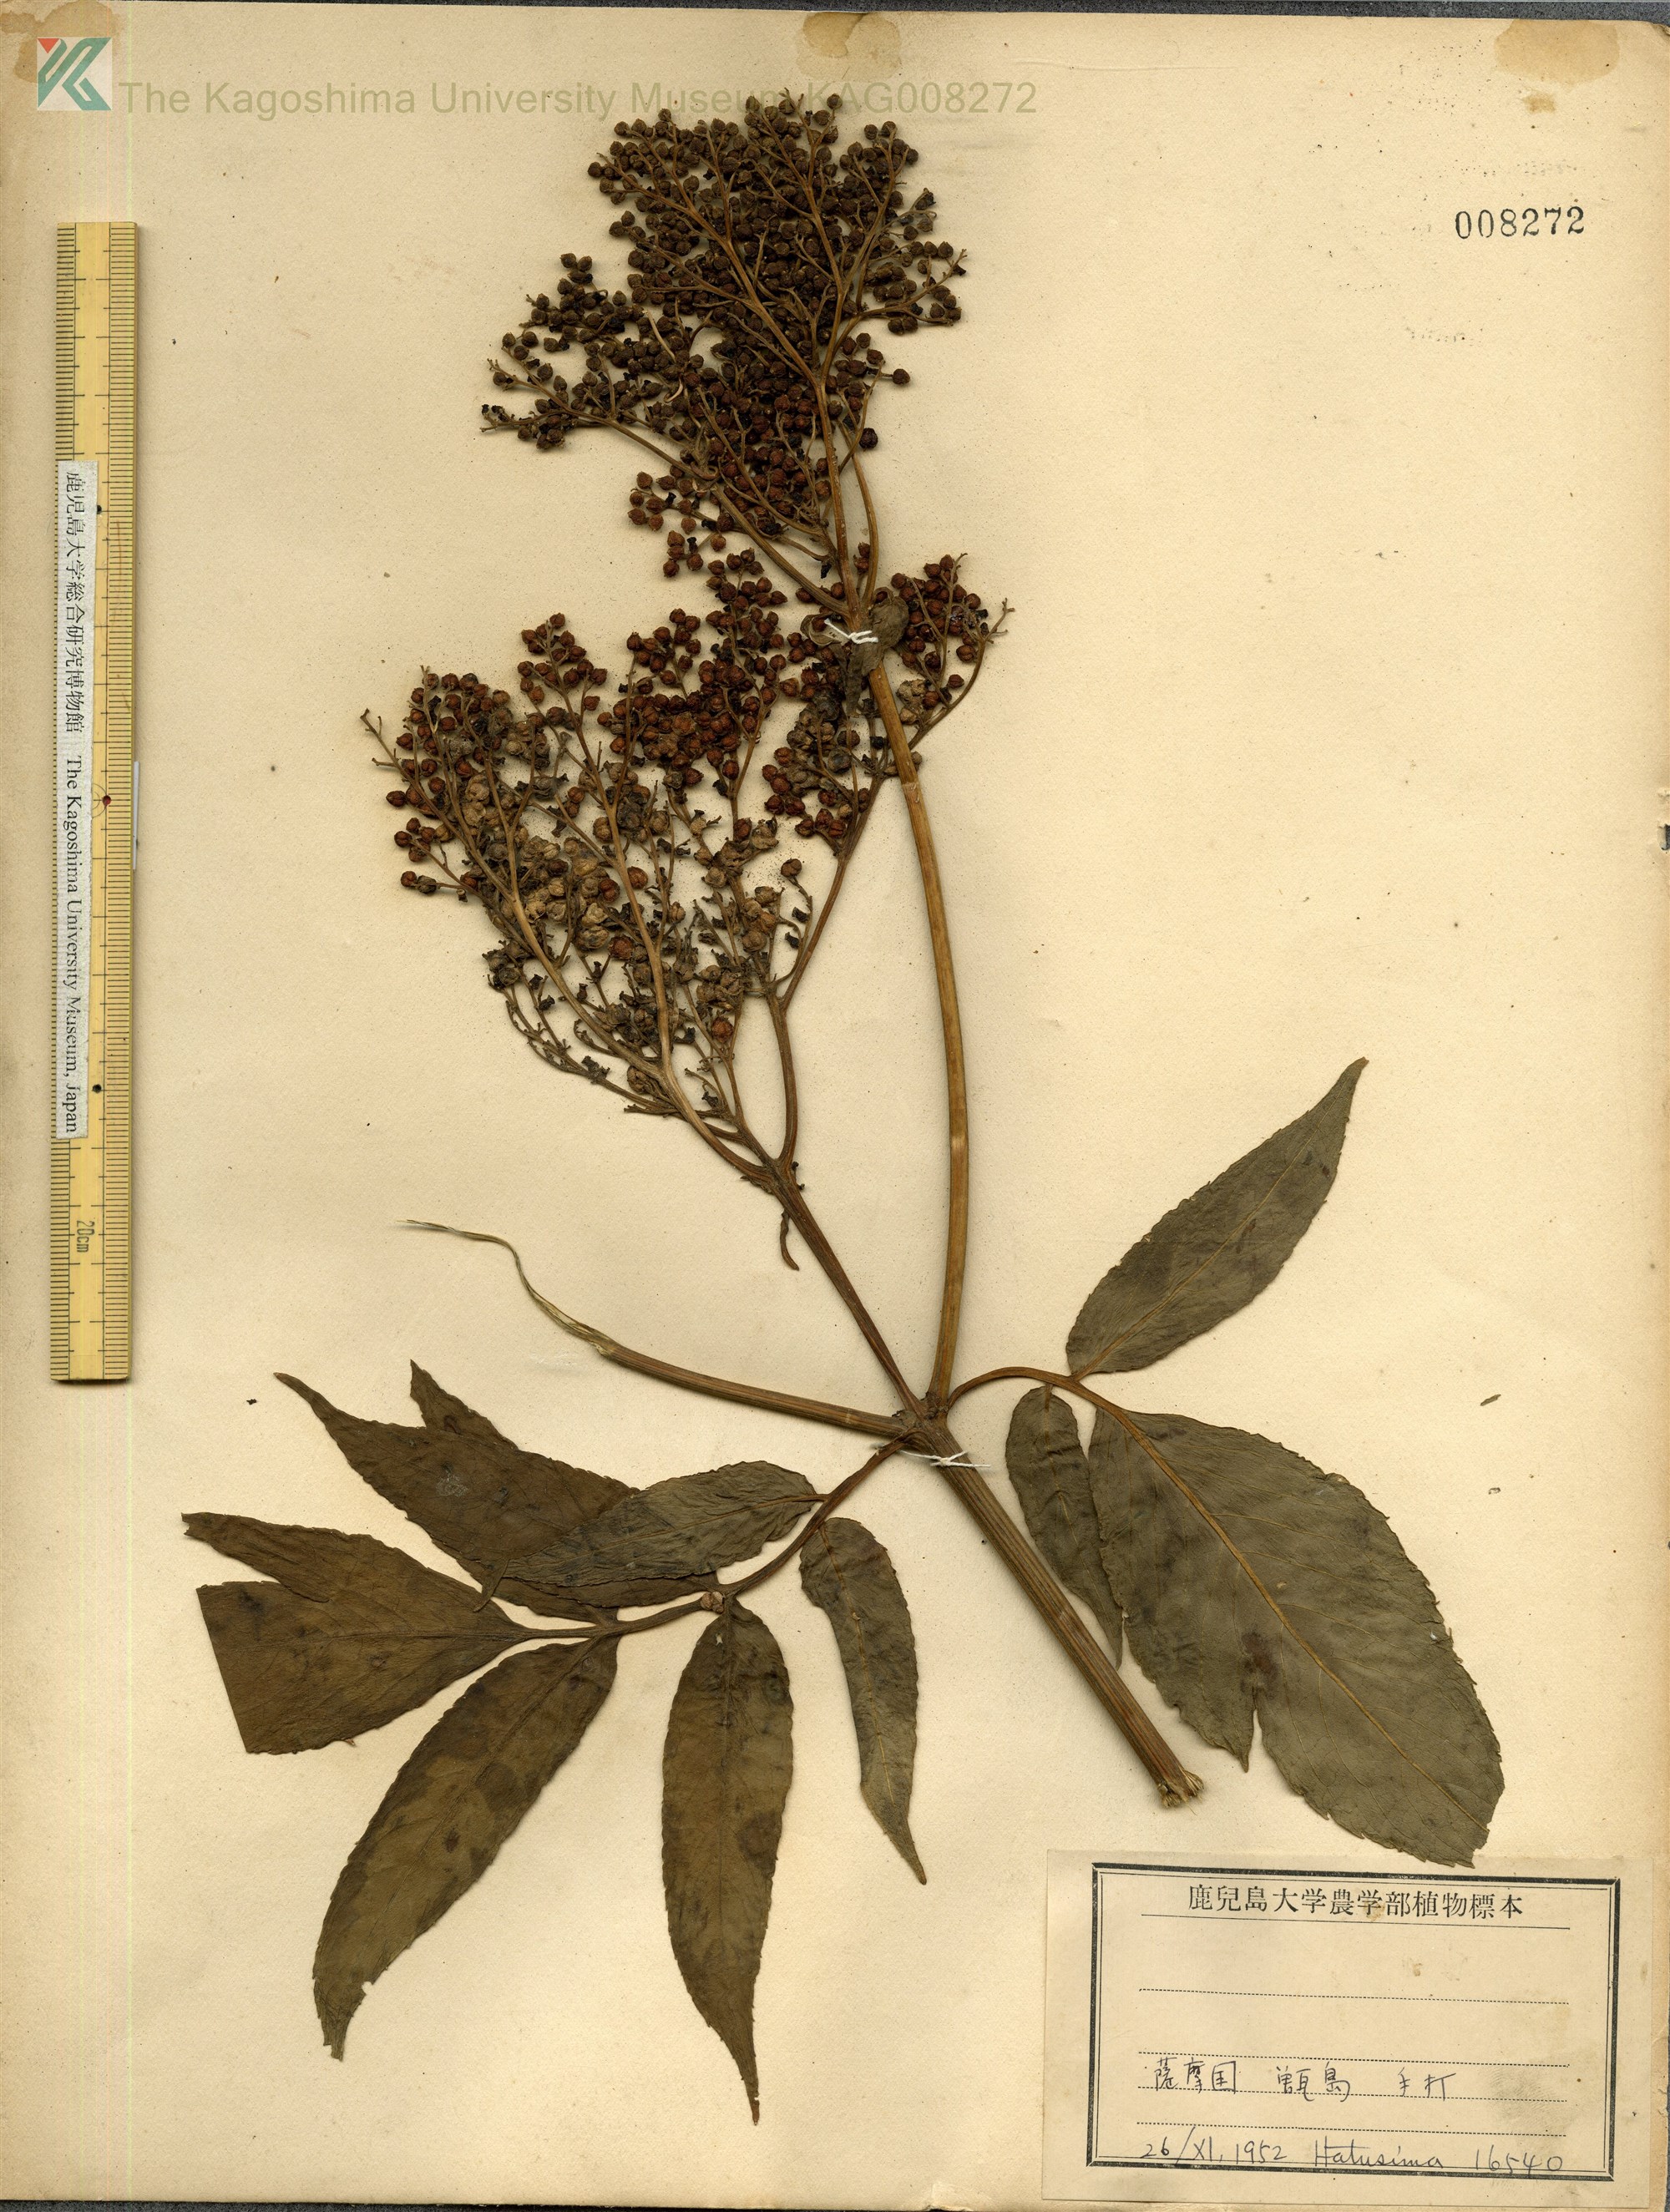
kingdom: Plantae
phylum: Tracheophyta
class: Magnoliopsida
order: Dipsacales
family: Viburnaceae
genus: Sambucus
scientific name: Sambucus javanica
